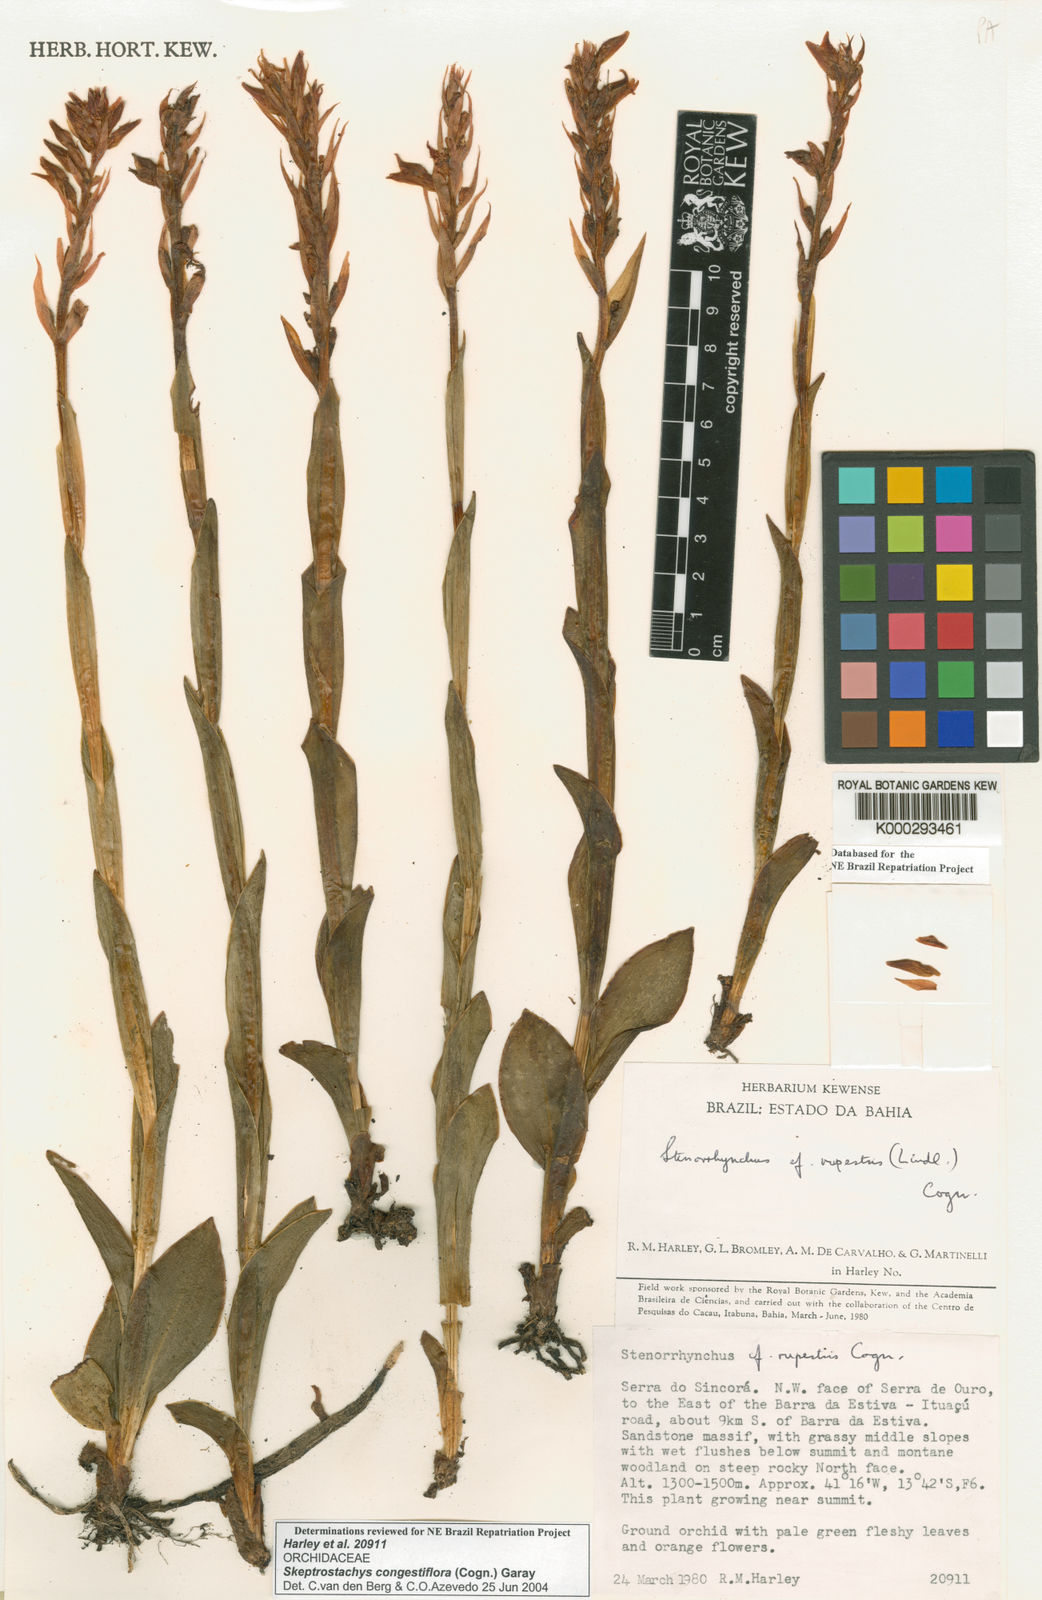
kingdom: Plantae
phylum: Tracheophyta
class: Liliopsida
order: Asparagales
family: Orchidaceae
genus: Skeptrostachys
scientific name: Skeptrostachys congestiflora
